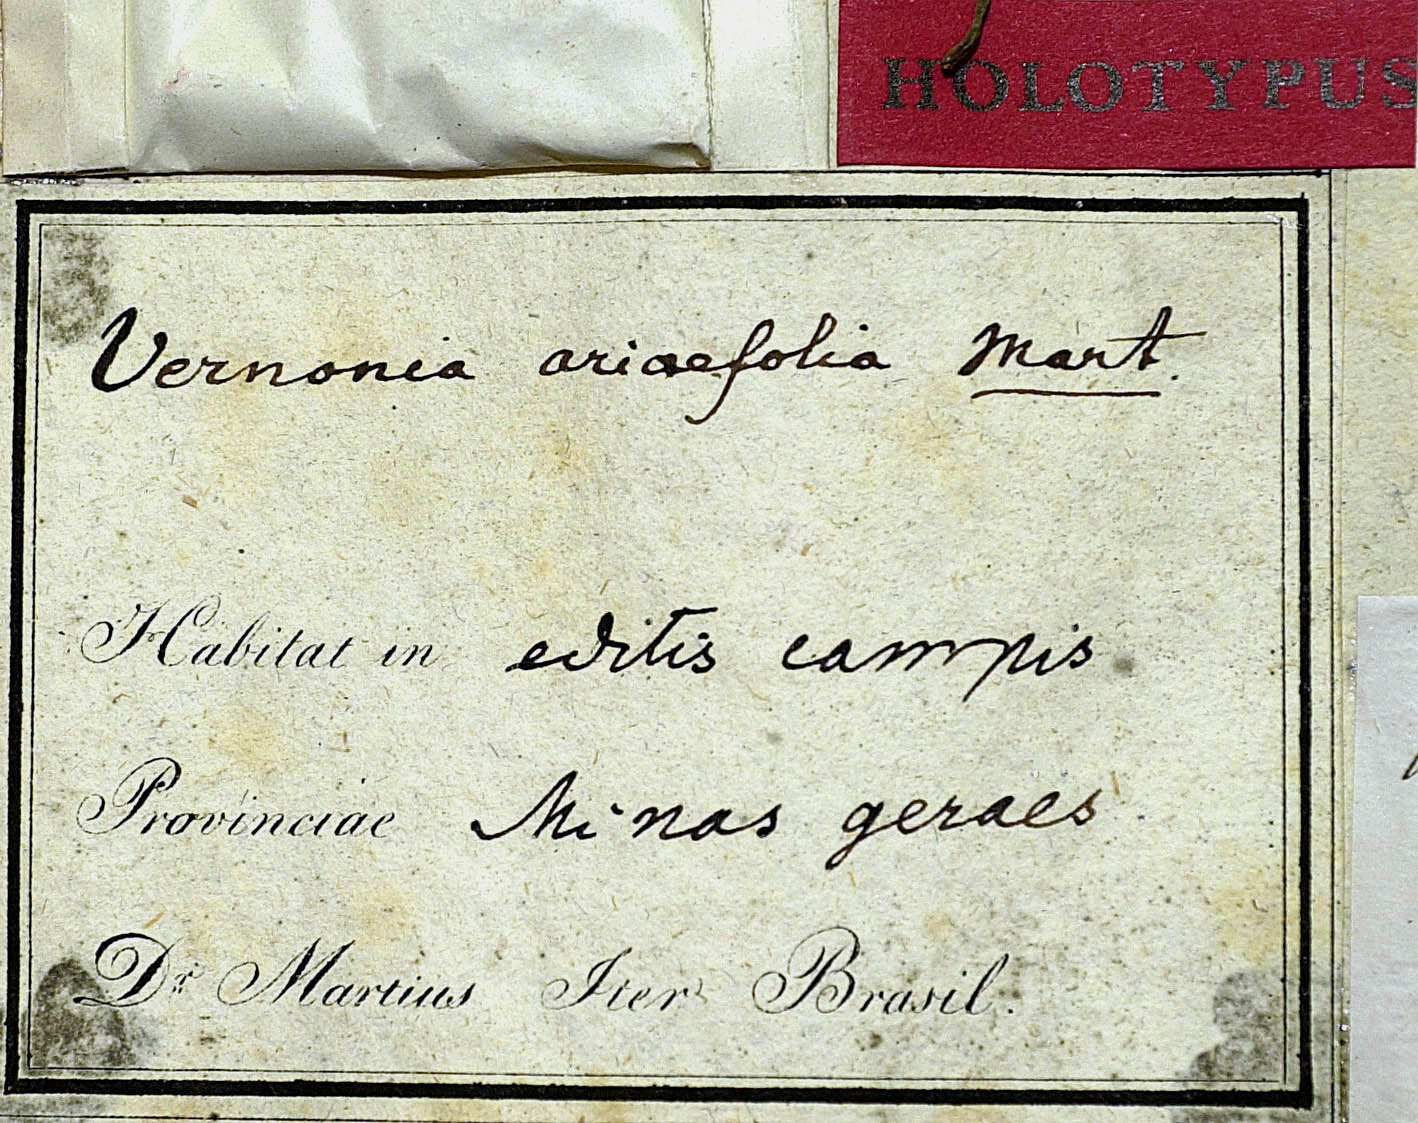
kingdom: Plantae
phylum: Tracheophyta
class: Magnoliopsida
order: Asterales
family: Asteraceae
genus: Lessingianthus
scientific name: Lessingianthus argyrophyllus
